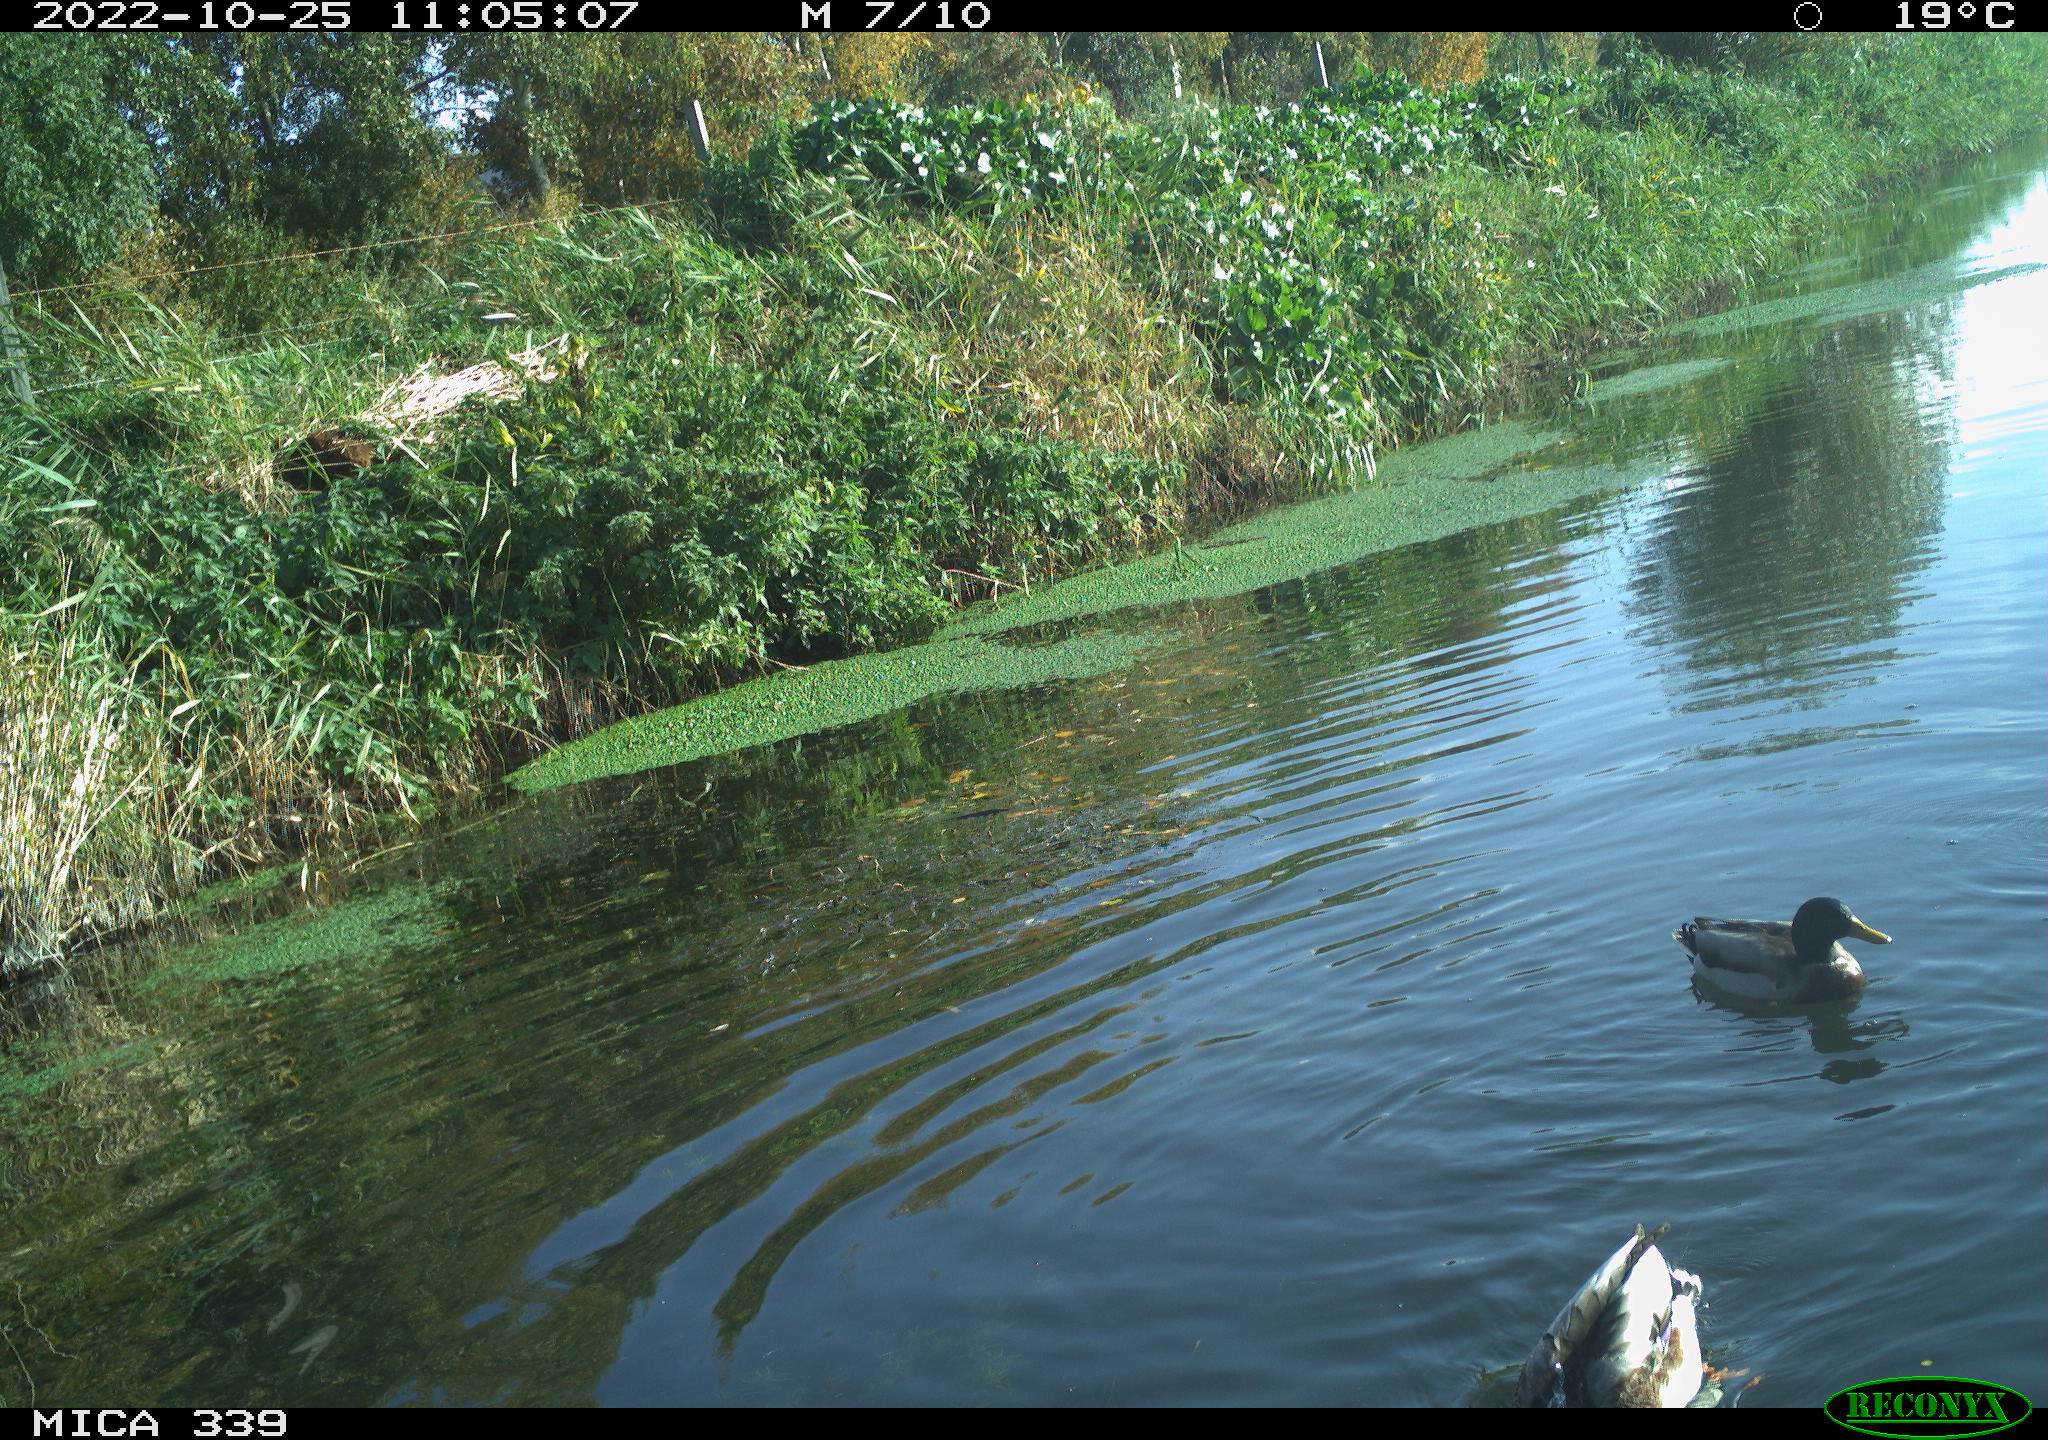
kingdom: Animalia
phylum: Chordata
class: Aves
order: Anseriformes
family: Anatidae
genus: Anas
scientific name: Anas platyrhynchos
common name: Mallard
